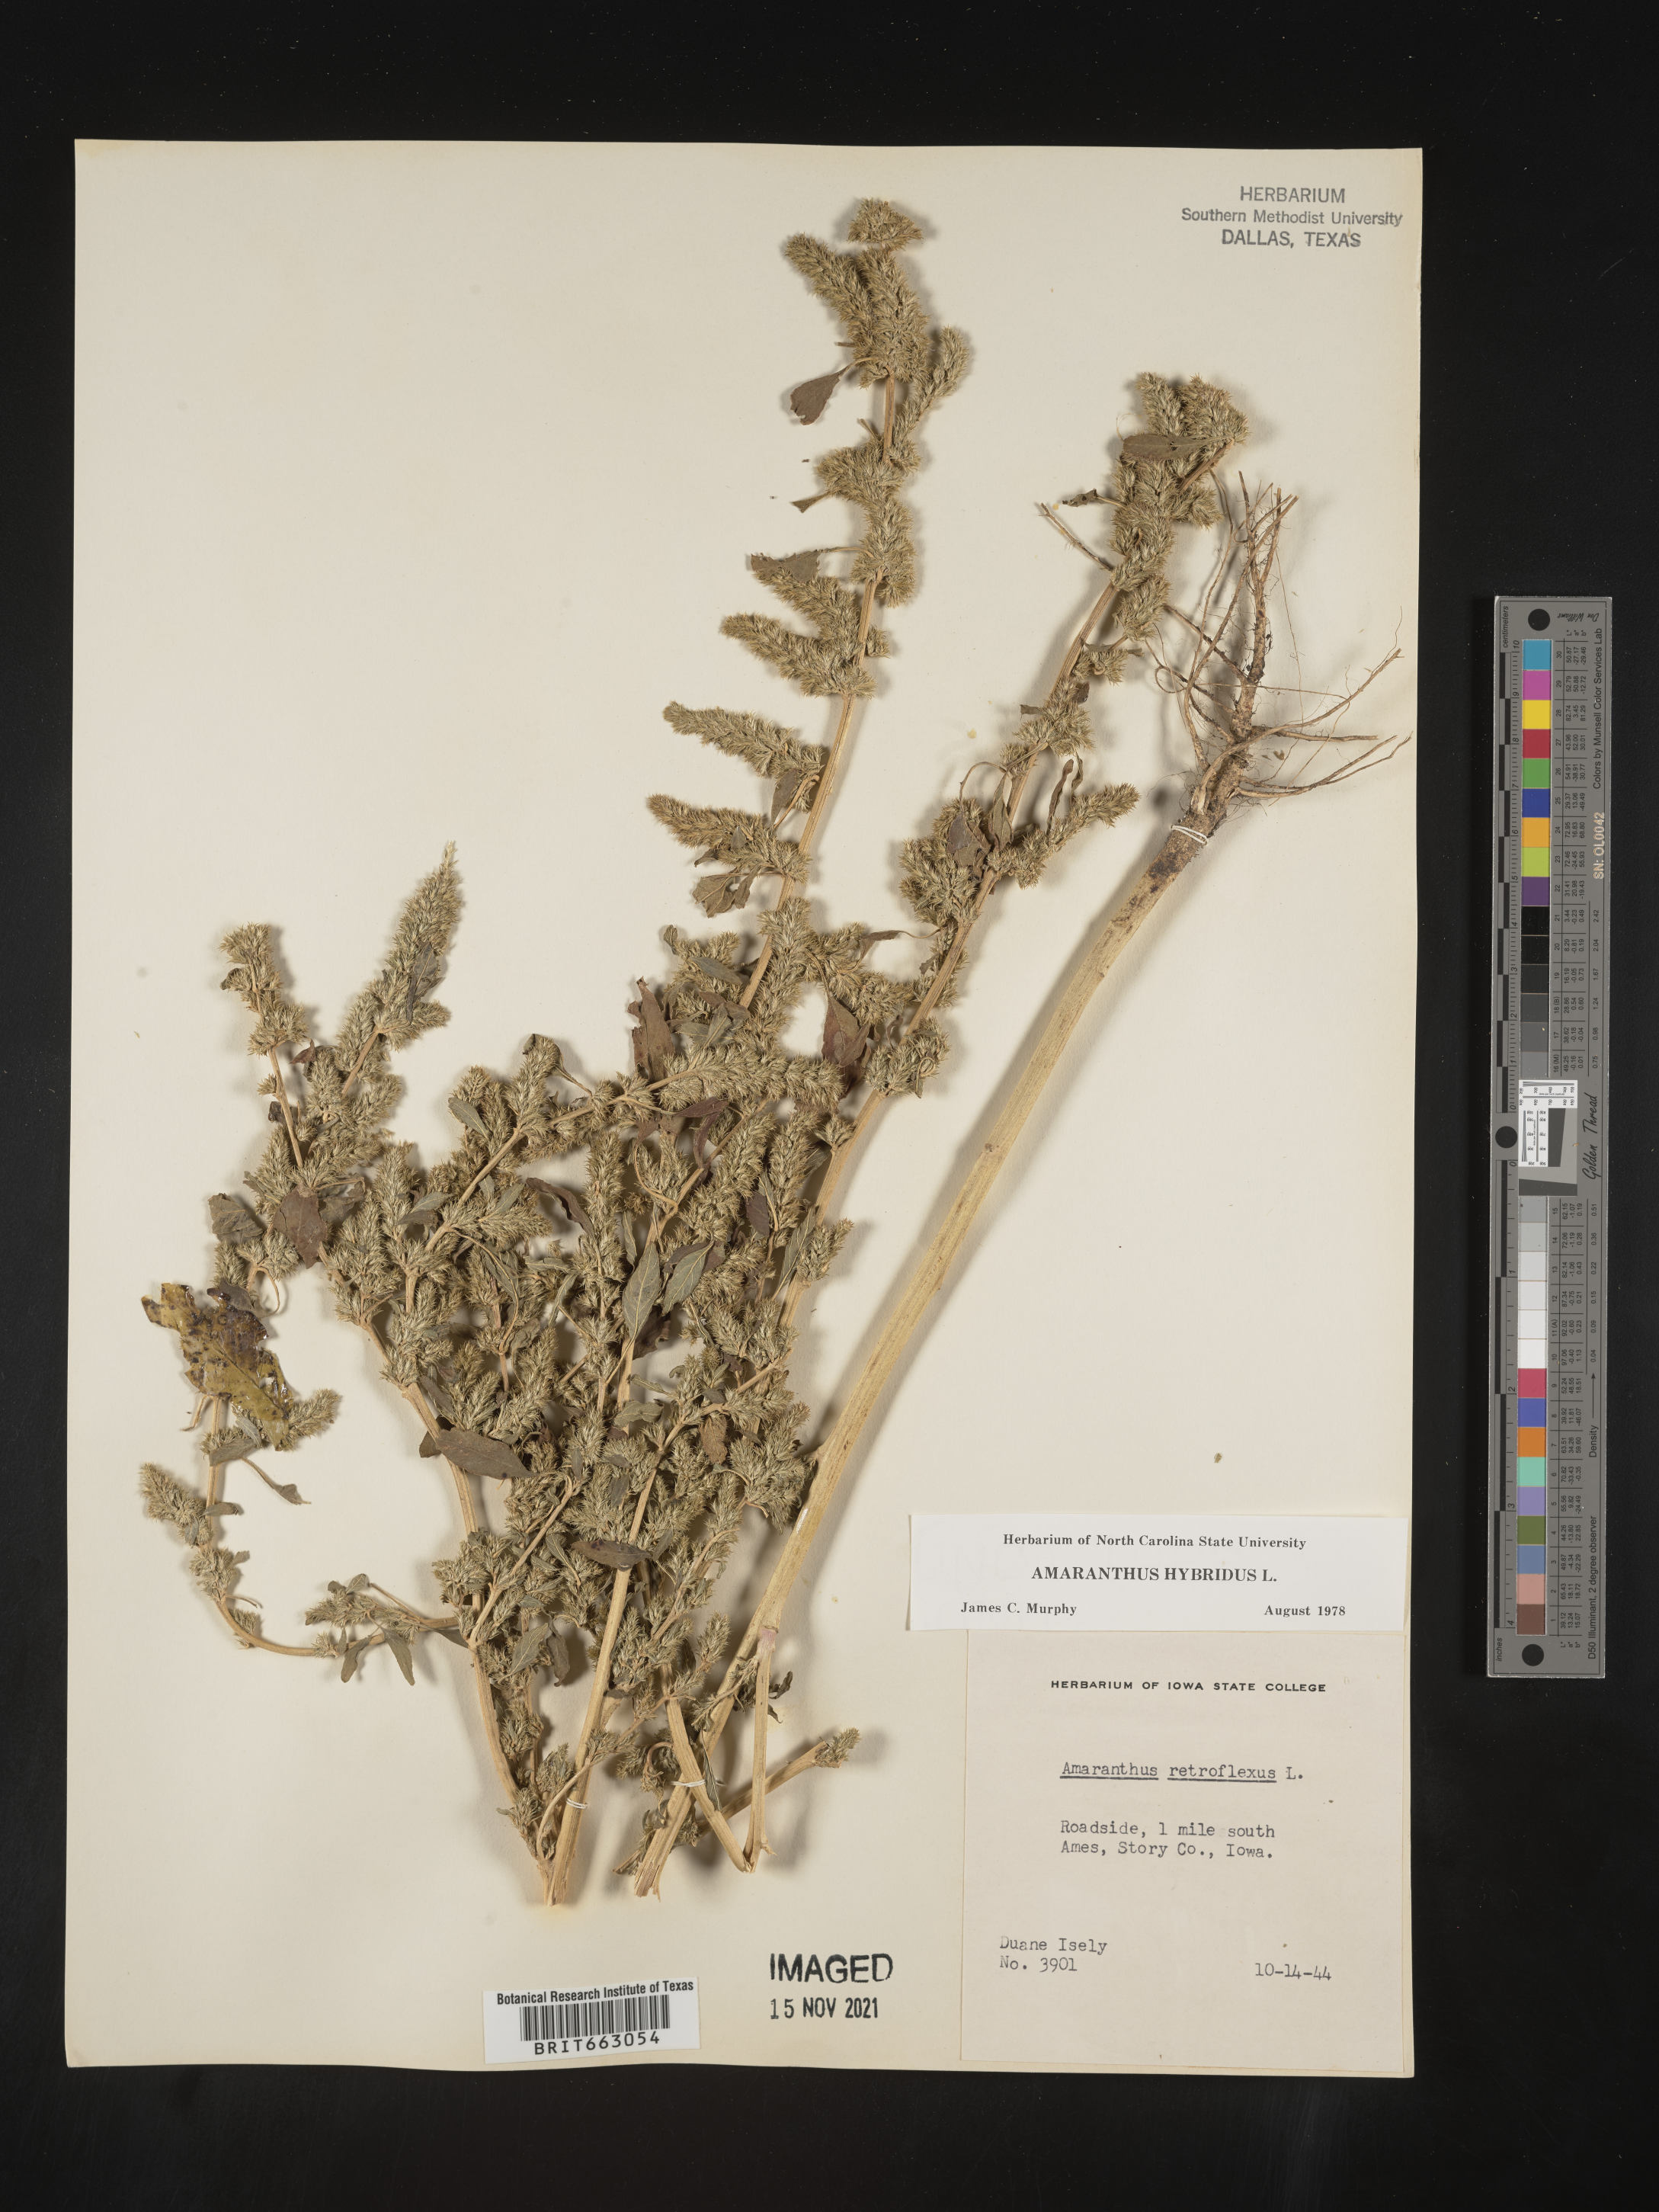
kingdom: Plantae
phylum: Tracheophyta
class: Magnoliopsida
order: Caryophyllales
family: Amaranthaceae
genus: Amaranthus
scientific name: Amaranthus retroflexus
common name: Redroot amaranth
